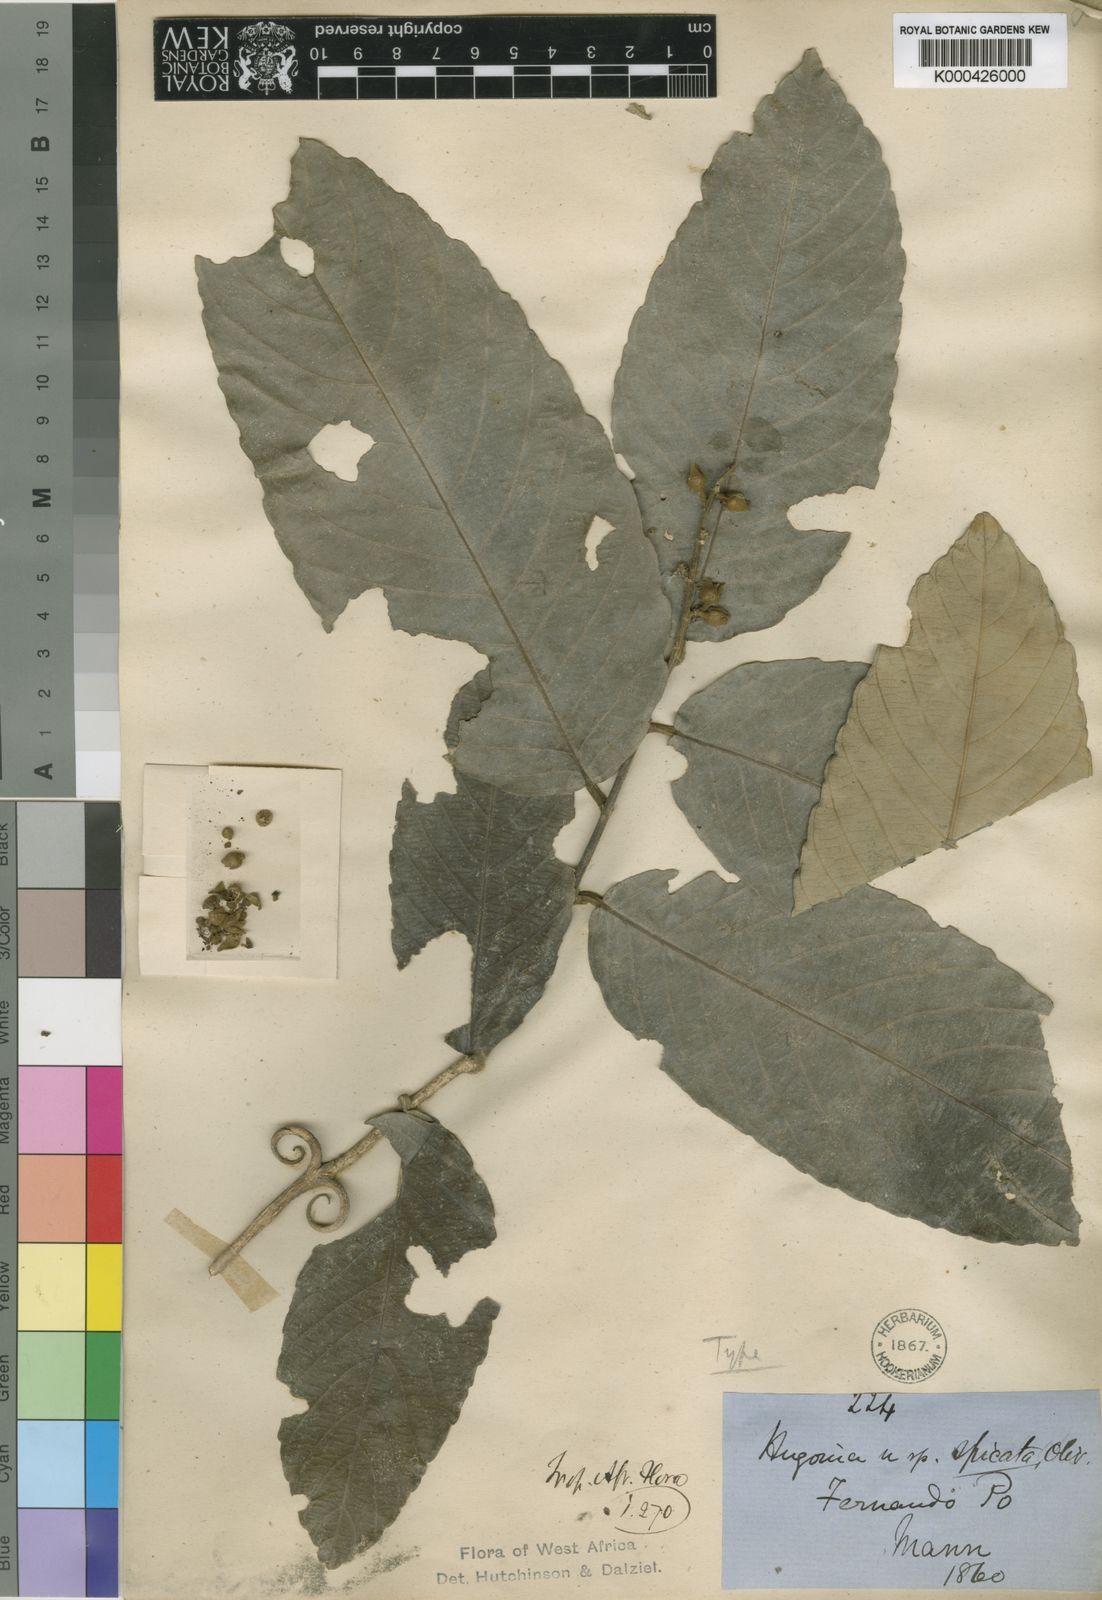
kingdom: Plantae
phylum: Tracheophyta
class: Magnoliopsida
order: Malpighiales
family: Linaceae
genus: Hugonia
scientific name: Hugonia spicata
